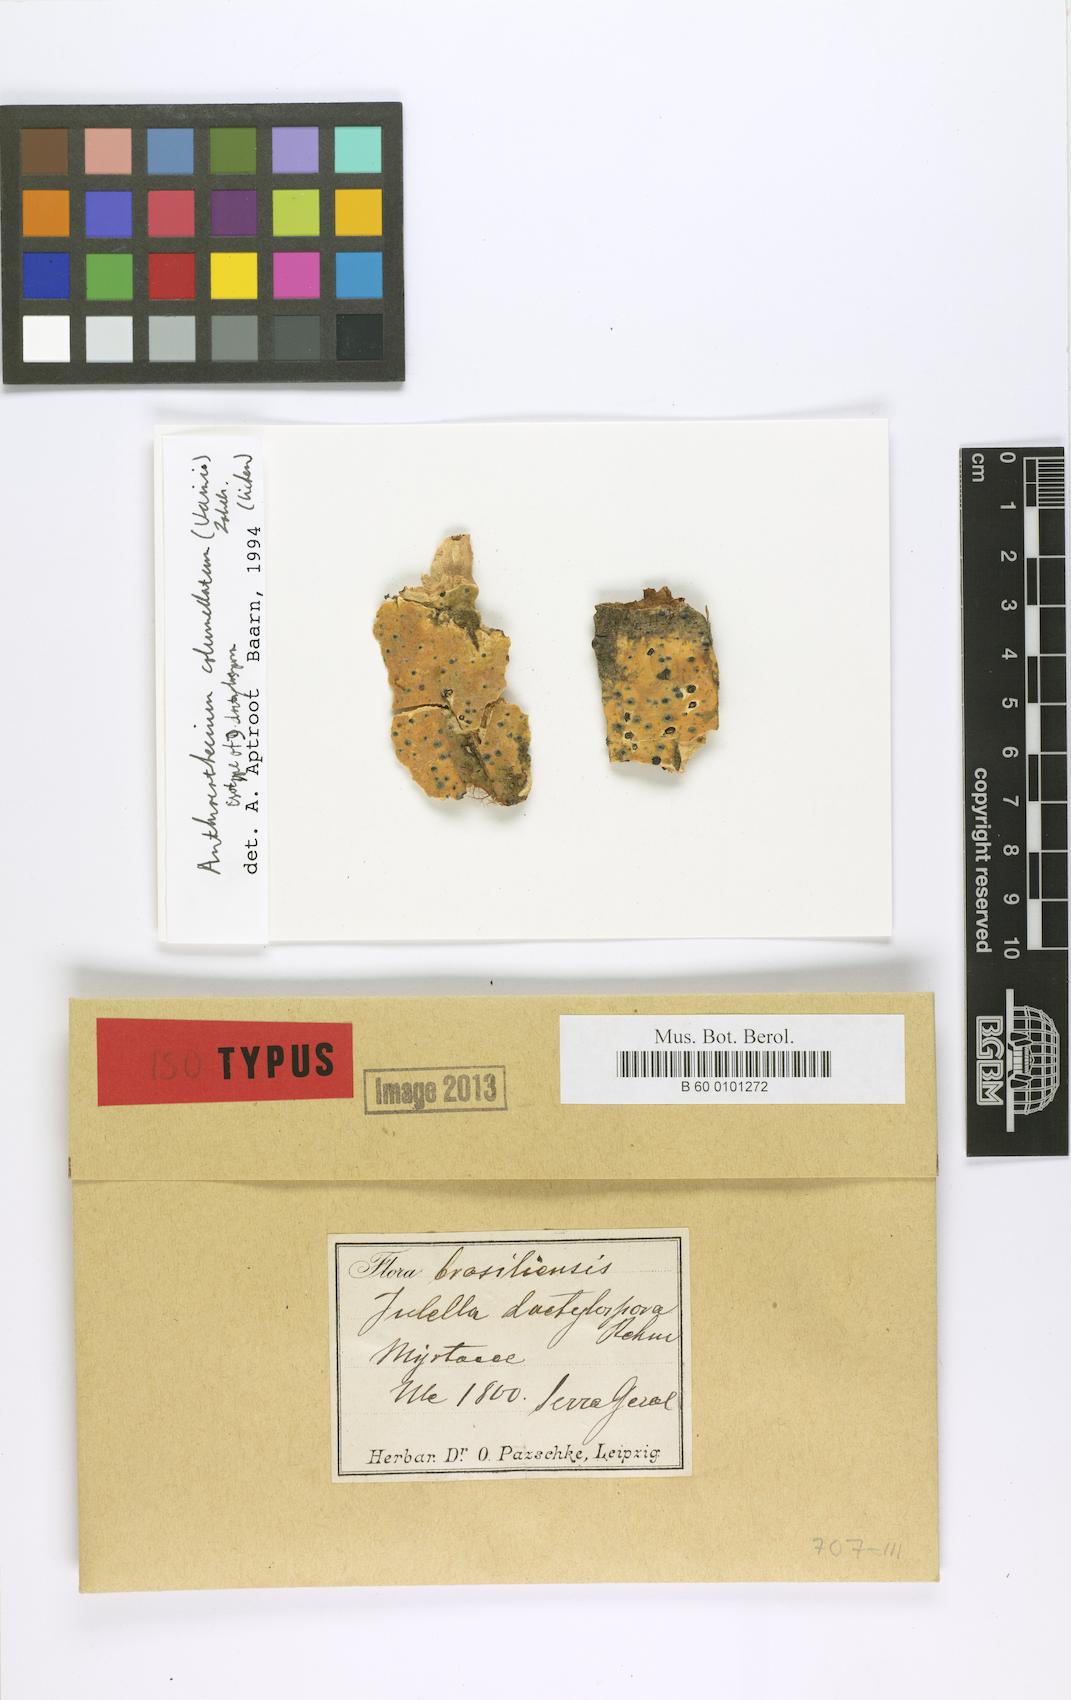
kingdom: Fungi
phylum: Ascomycota
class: Eurotiomycetes
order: Pyrenulales
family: Pyrenulaceae
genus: Anthracothecium
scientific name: Anthracothecium columellatum
